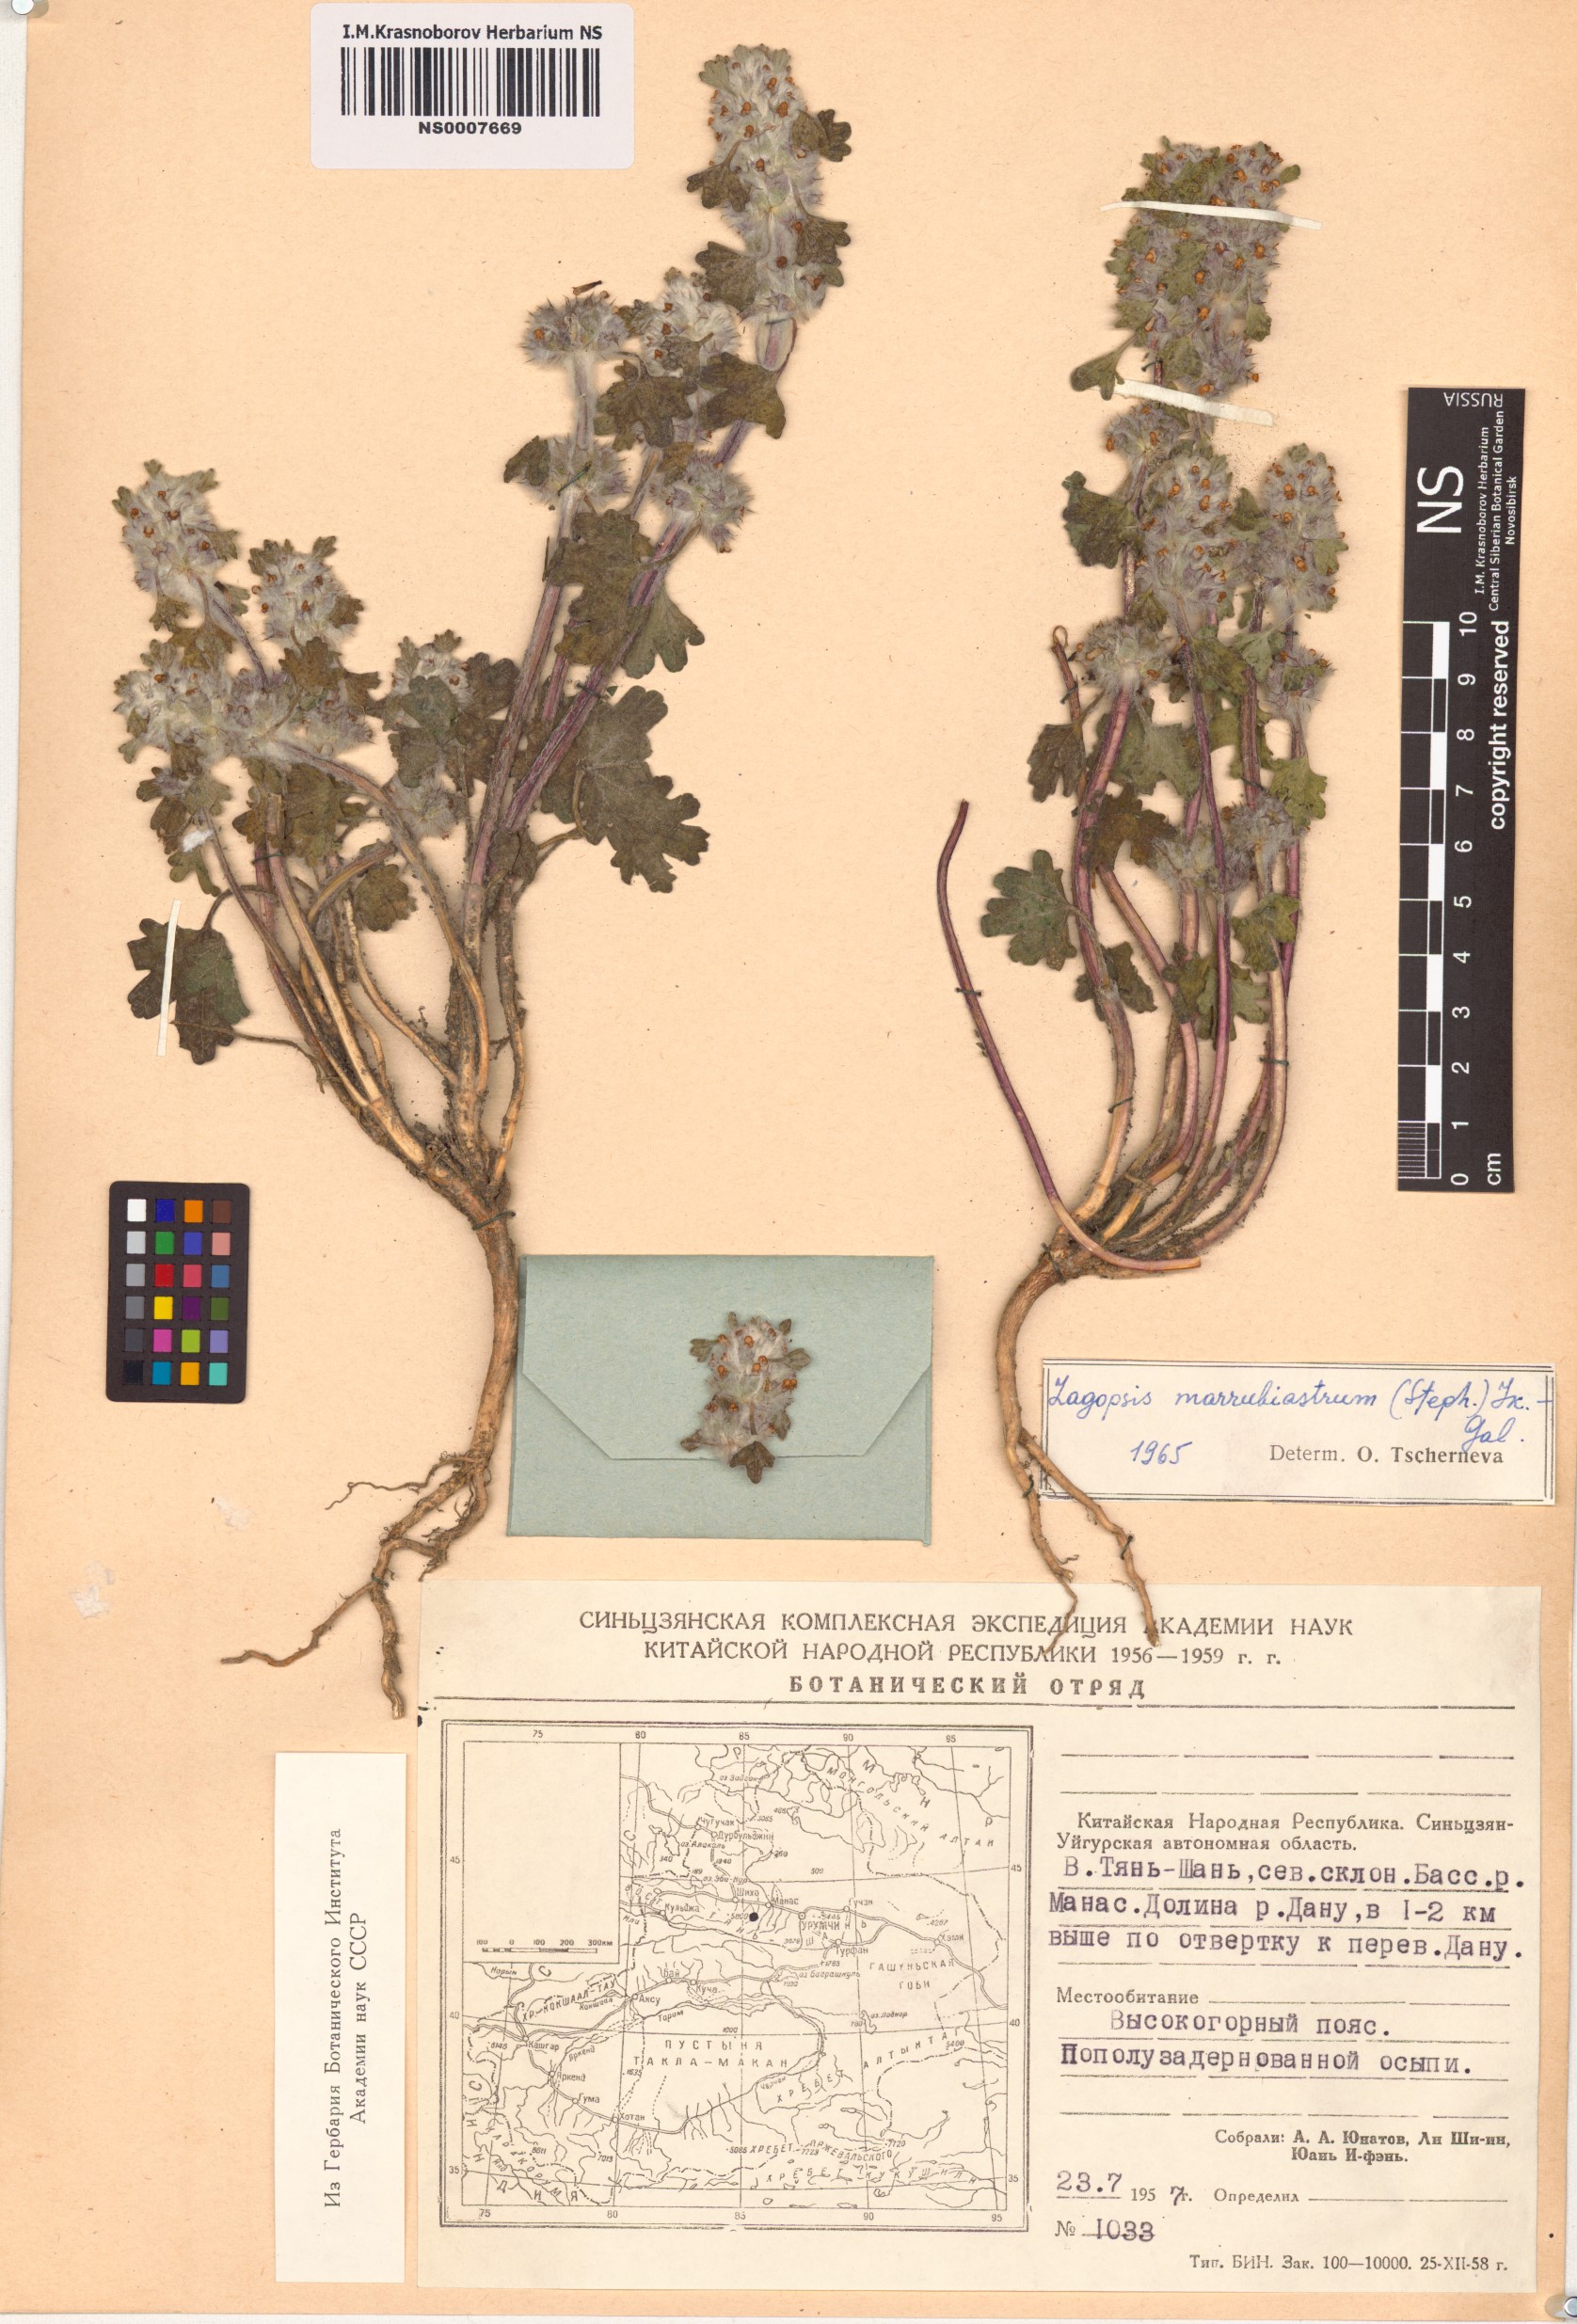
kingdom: Plantae
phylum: Tracheophyta
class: Magnoliopsida
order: Lamiales
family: Lamiaceae
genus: Lagopsis
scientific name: Lagopsis marrubiastrum
